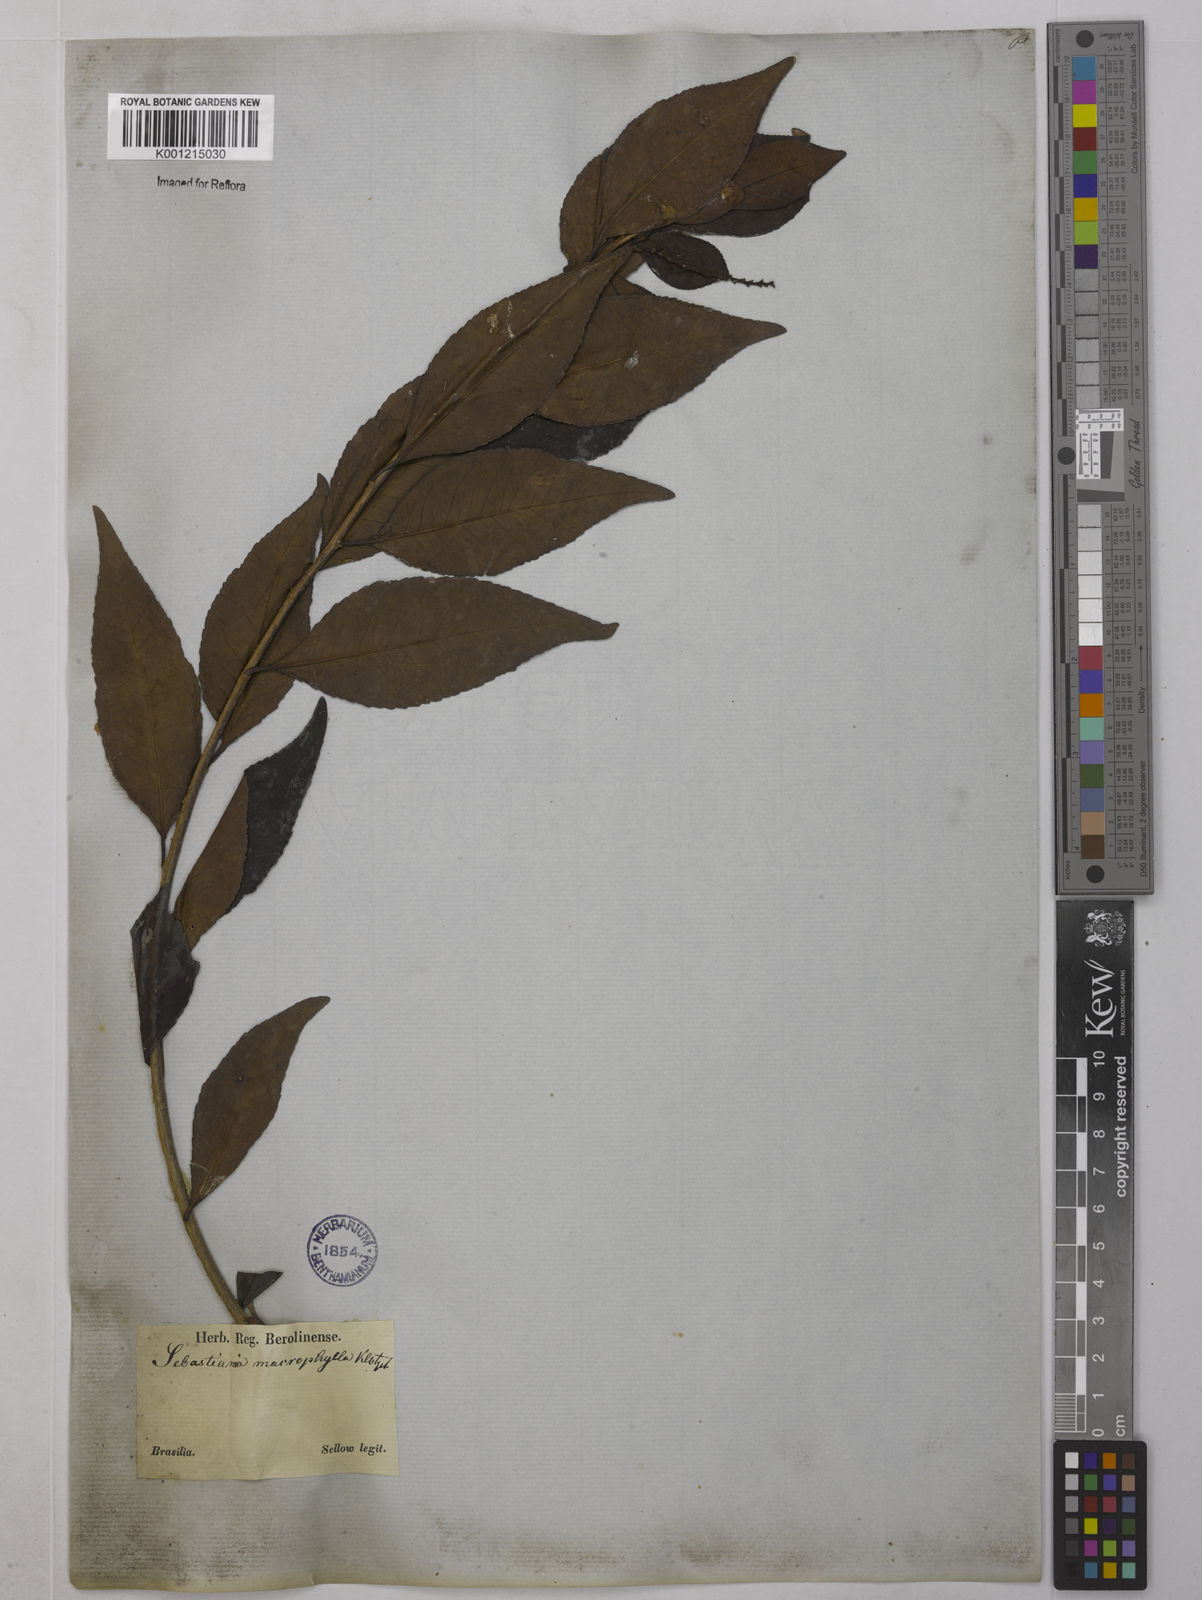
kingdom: Plantae
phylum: Tracheophyta
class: Magnoliopsida
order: Malpighiales
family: Euphorbiaceae
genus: Sebastiania
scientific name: Sebastiania brasiliensis
